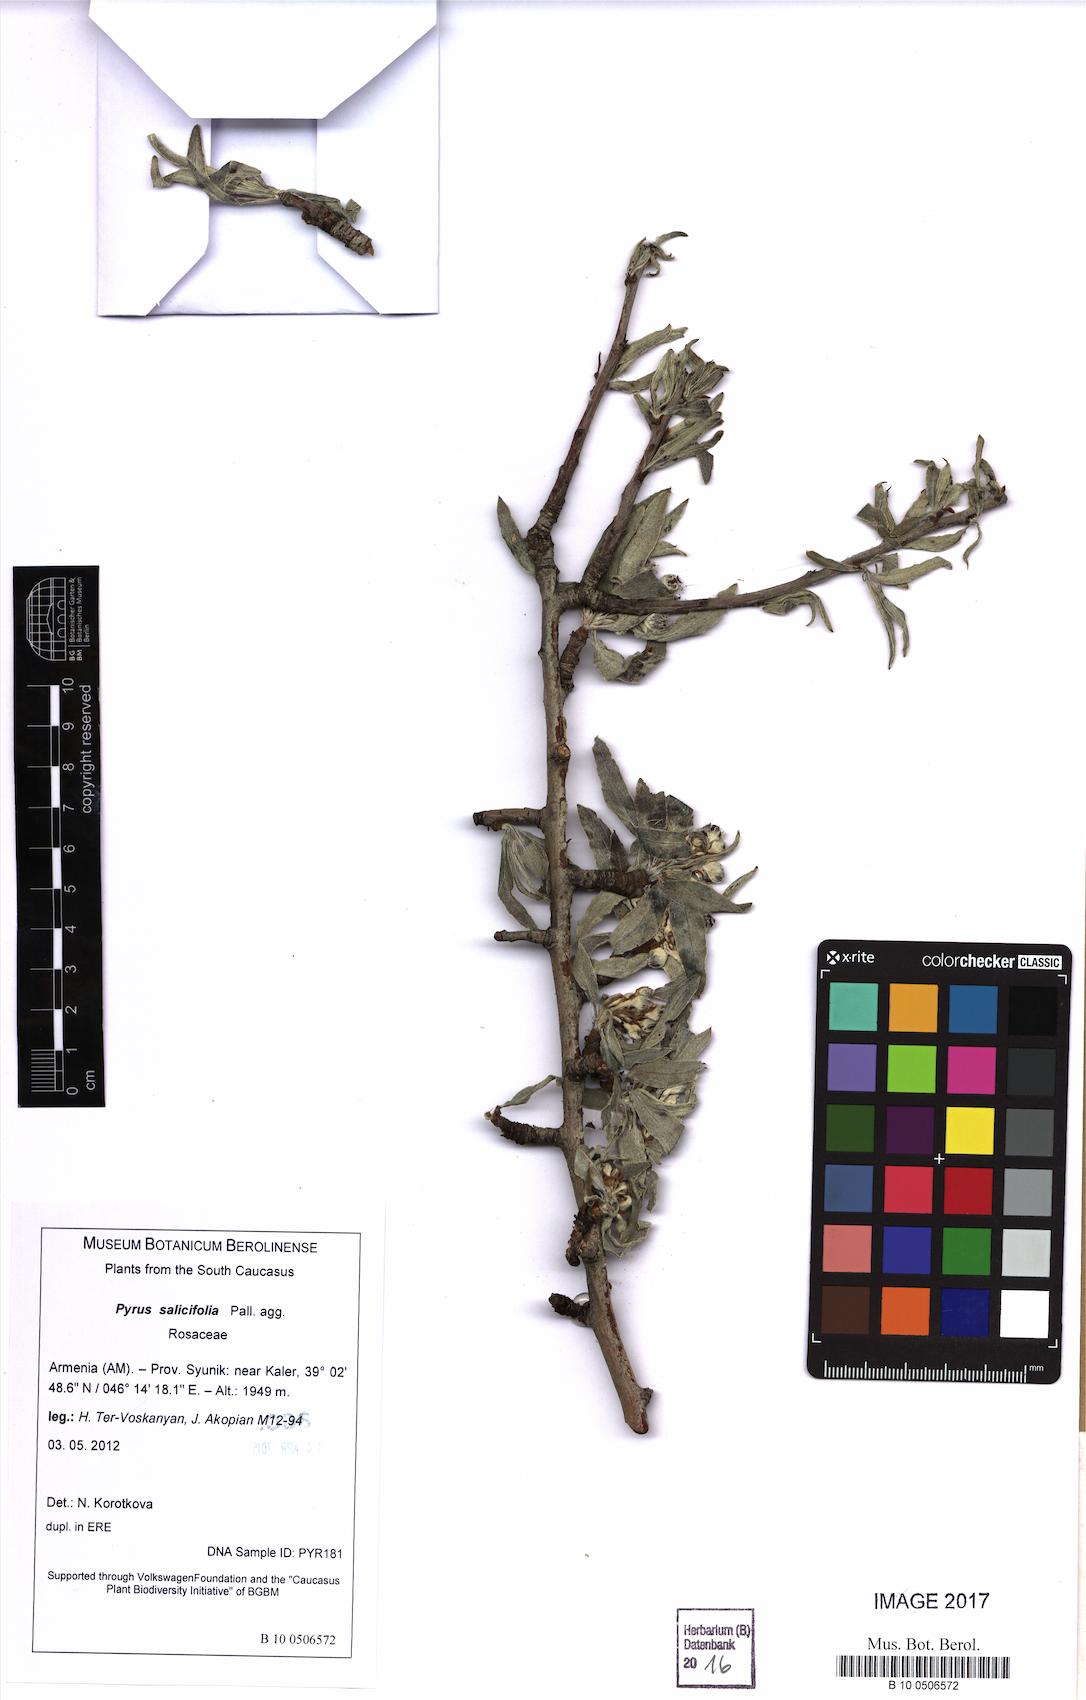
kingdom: Plantae
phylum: Tracheophyta
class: Magnoliopsida
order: Rosales
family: Rosaceae
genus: Pyrus
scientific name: Pyrus salicifolia
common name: Willow-leaved pear
